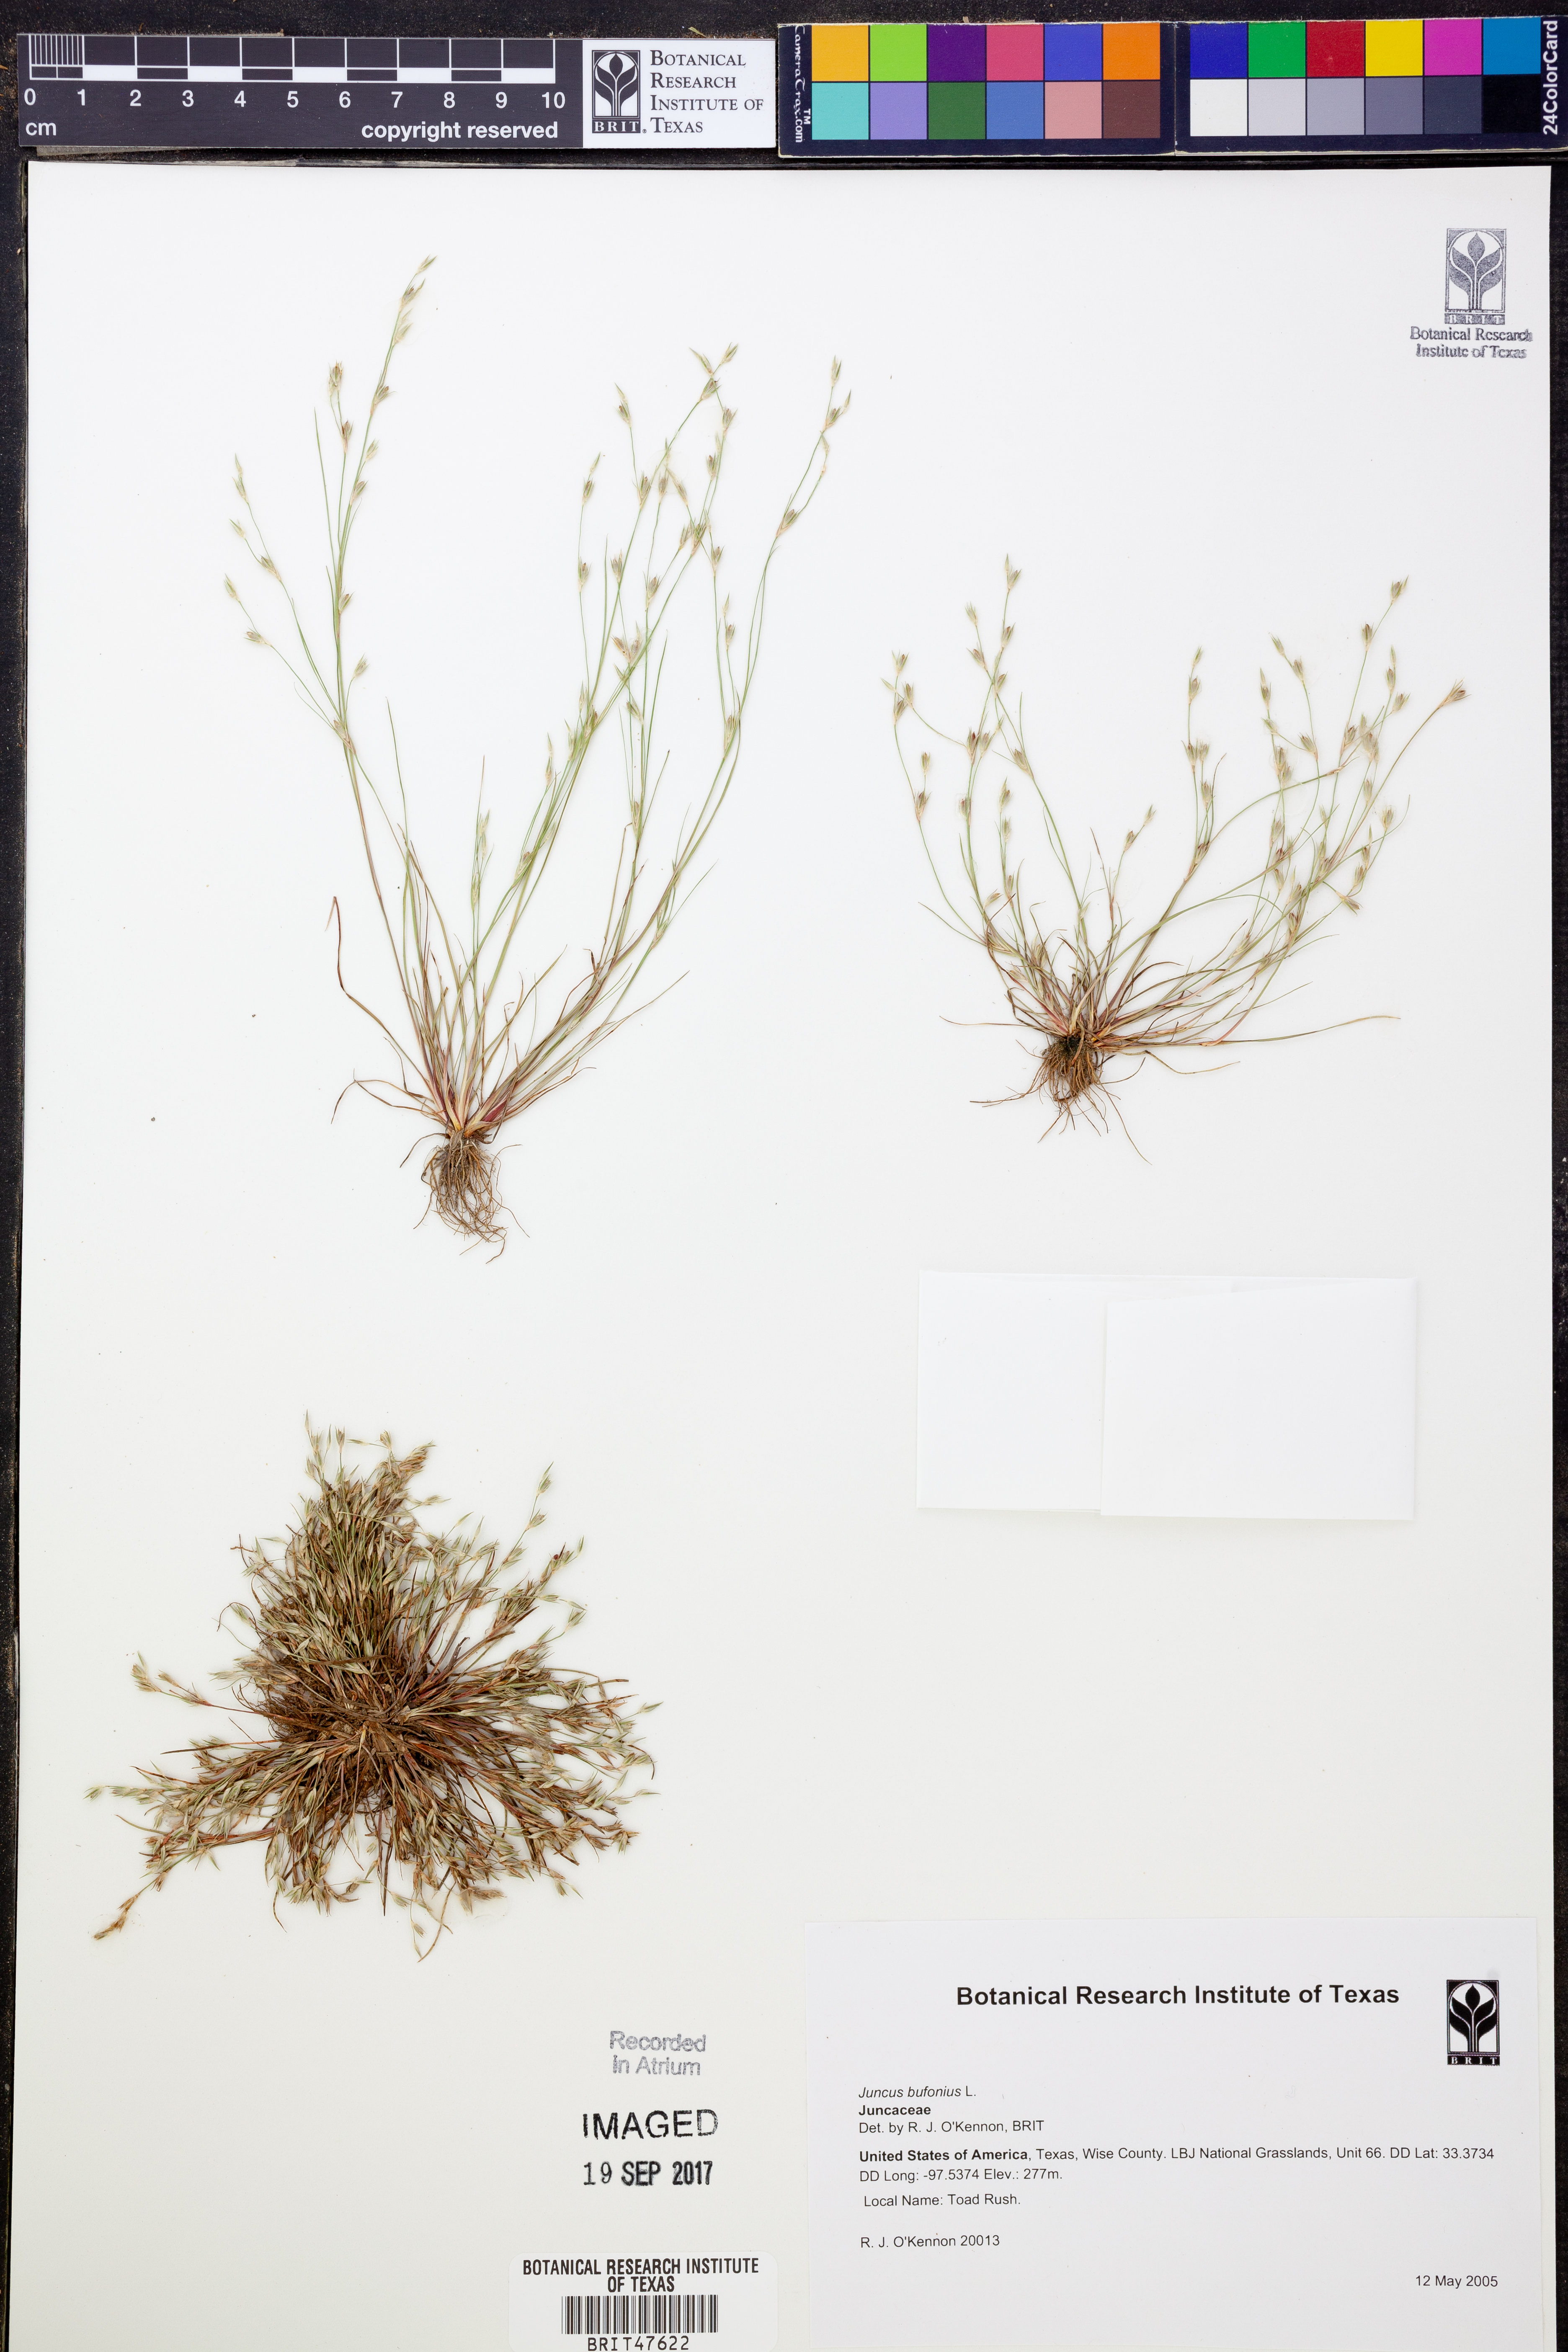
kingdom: Plantae
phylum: Tracheophyta
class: Liliopsida
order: Poales
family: Juncaceae
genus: Juncus
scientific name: Juncus bufonius
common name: Toad rush
